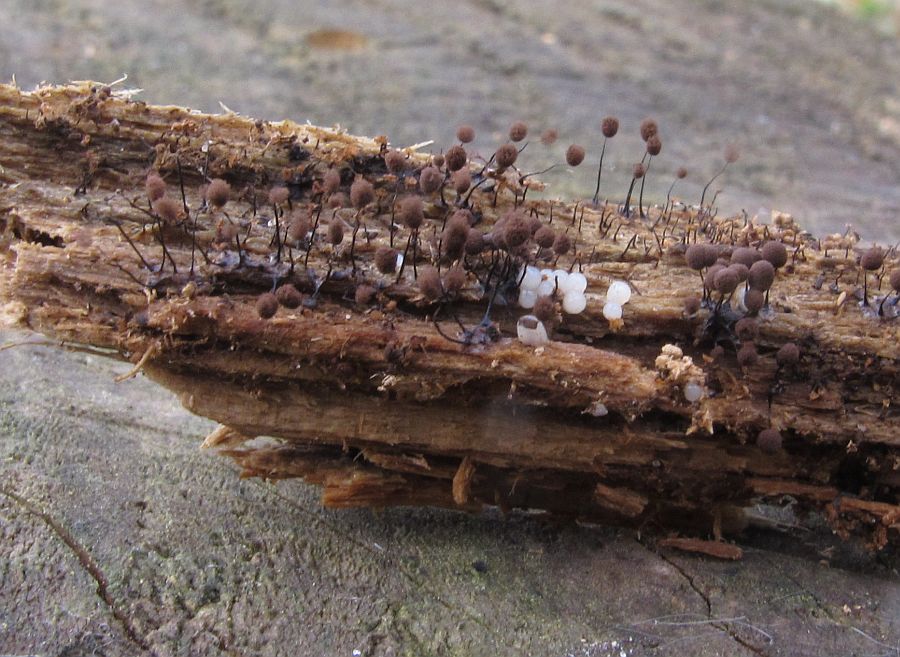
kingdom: Protozoa
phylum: Mycetozoa
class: Myxomycetes
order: Stemonitidales
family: Stemonitidaceae
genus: Comatricha
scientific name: Comatricha nigra
